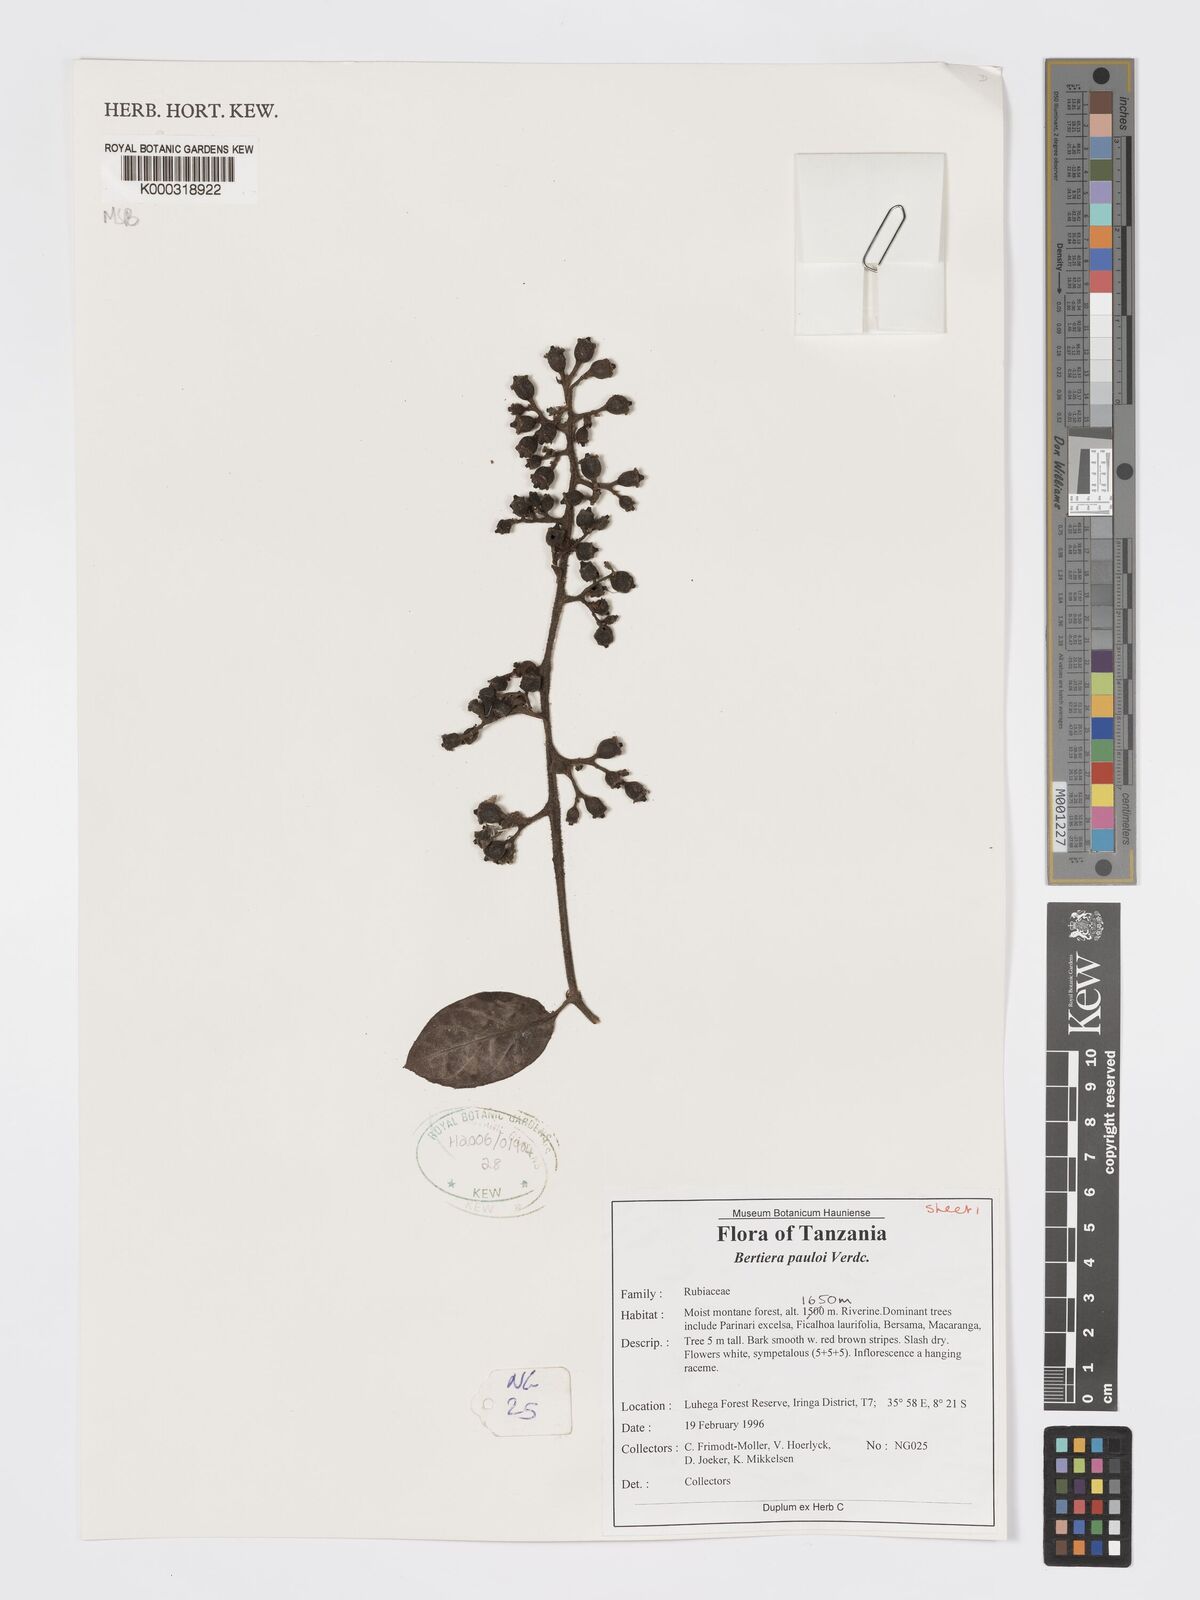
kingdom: Plantae
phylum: Tracheophyta
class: Magnoliopsida
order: Gentianales
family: Rubiaceae
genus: Bertiera
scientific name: Bertiera pauloi
